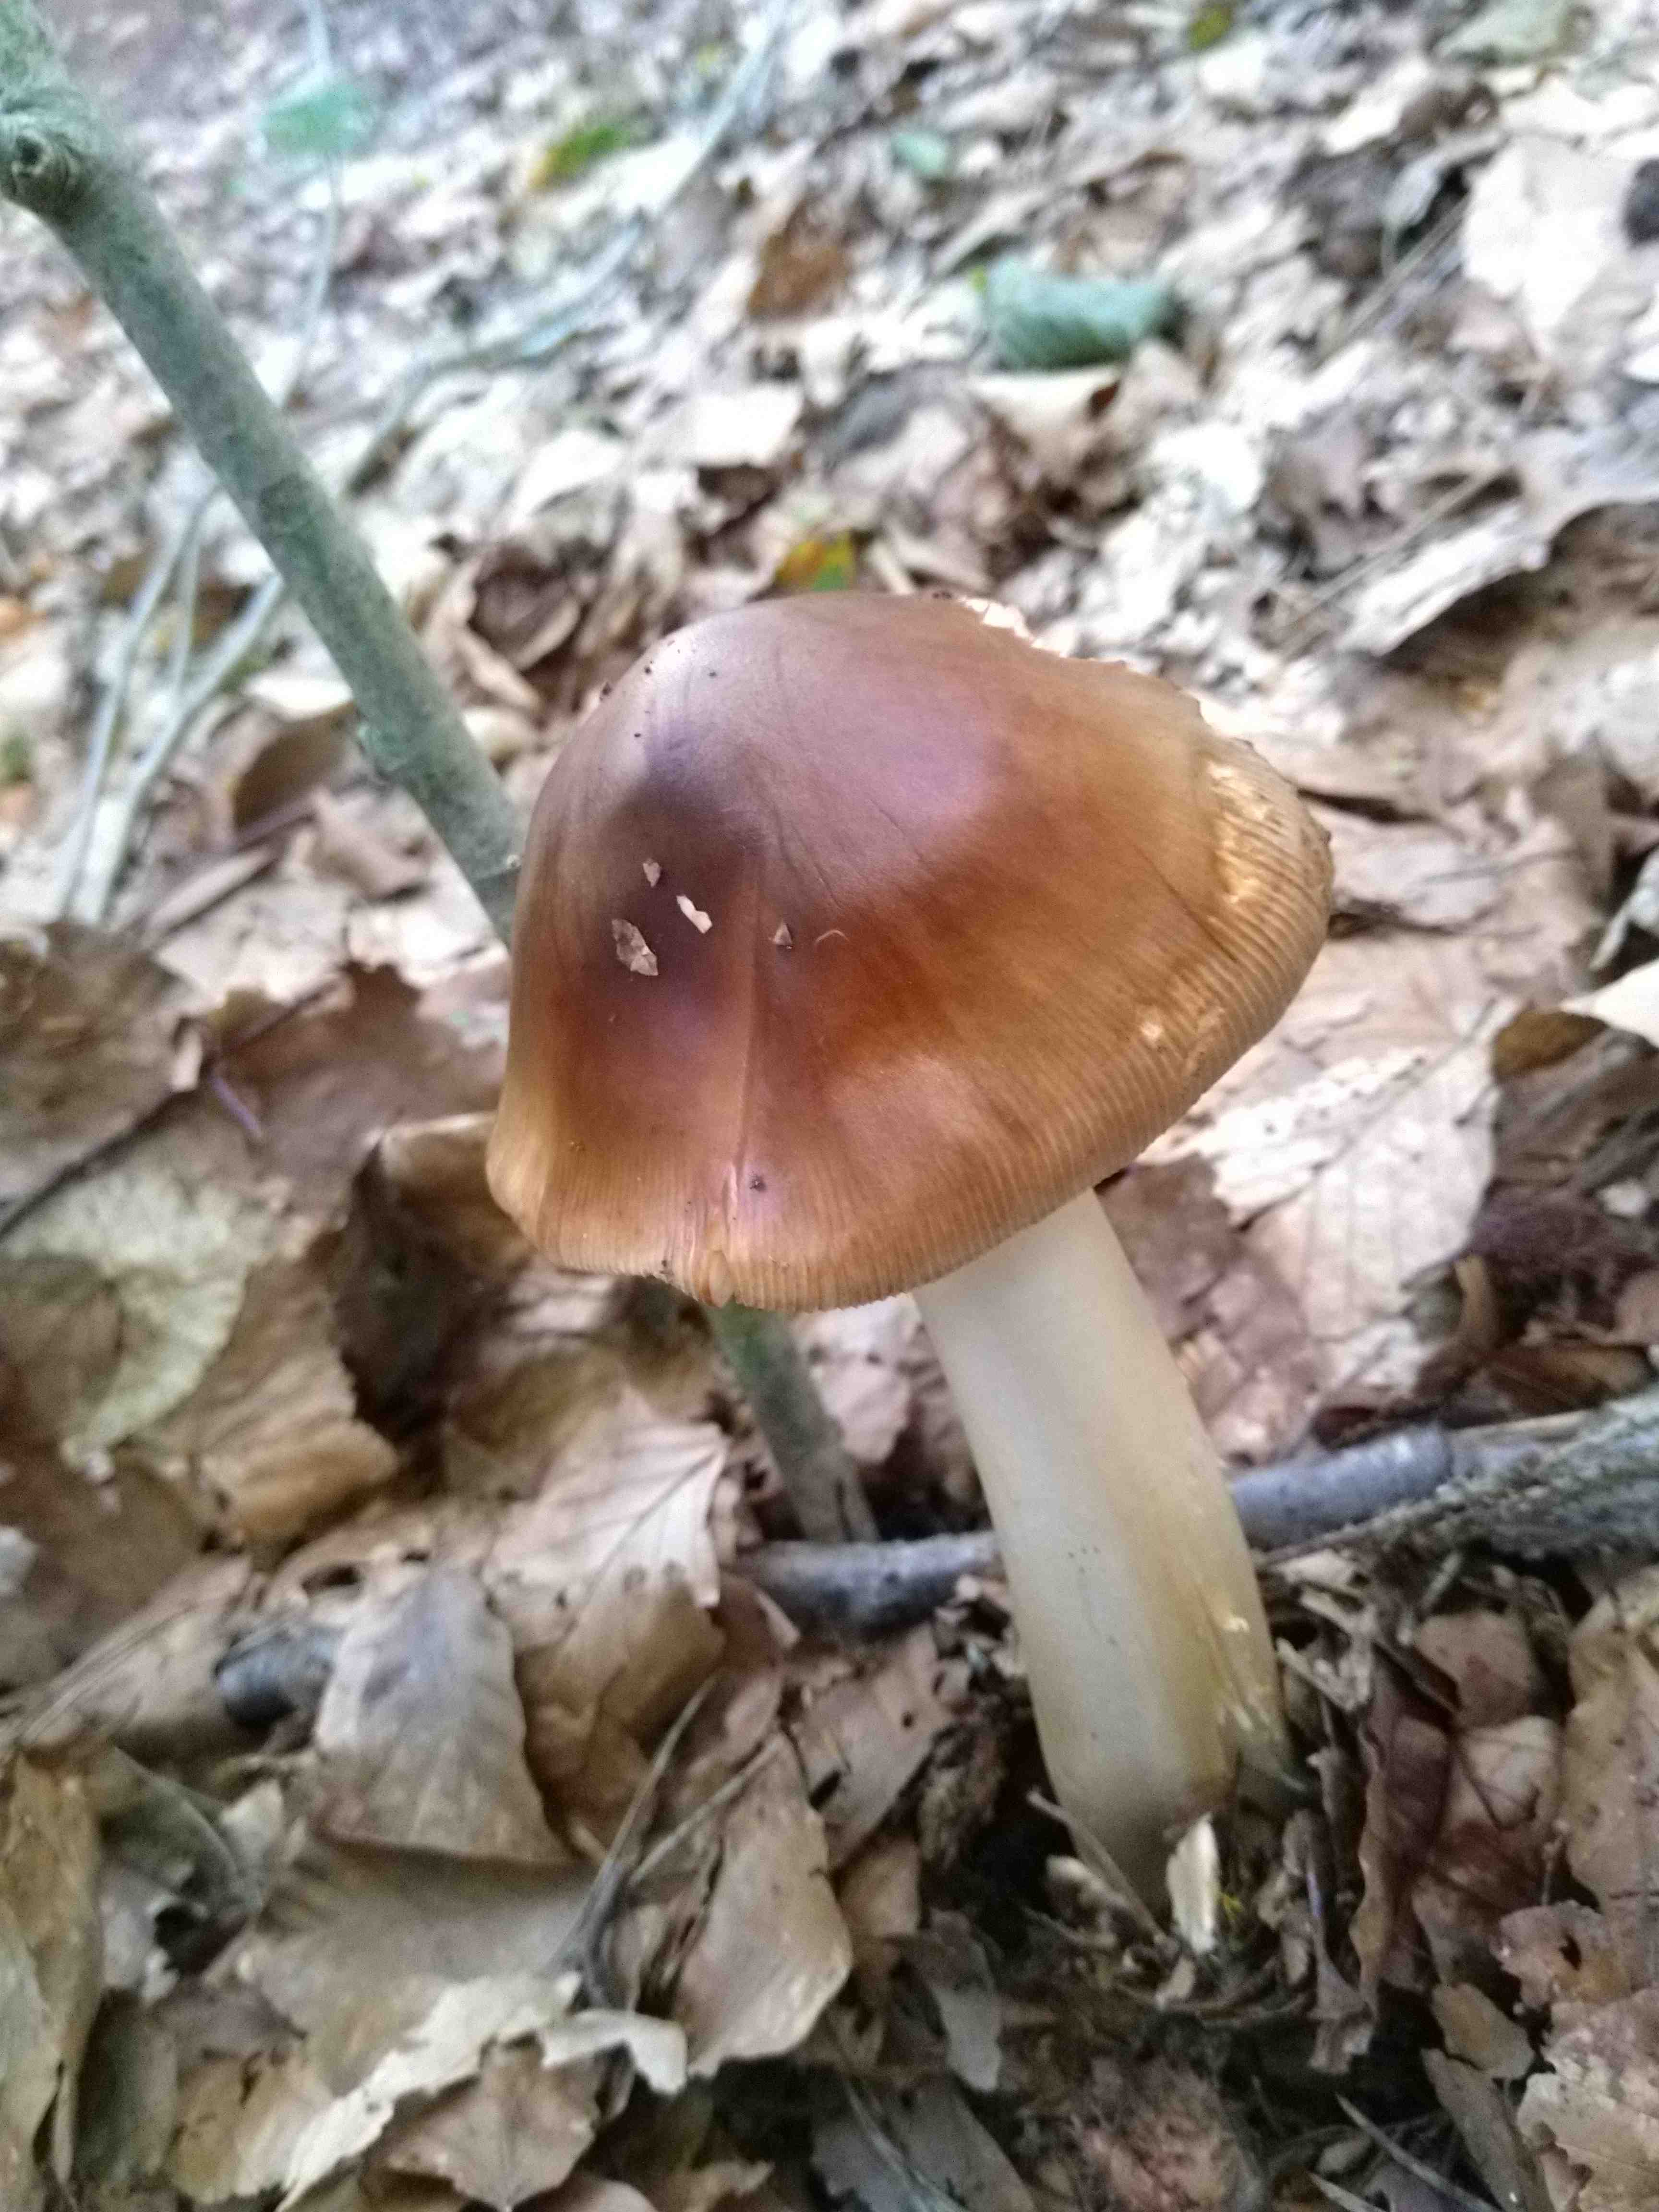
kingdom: Fungi
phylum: Basidiomycota
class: Agaricomycetes
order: Agaricales
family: Amanitaceae
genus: Amanita
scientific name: Amanita fulva
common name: brun kam-fluesvamp
